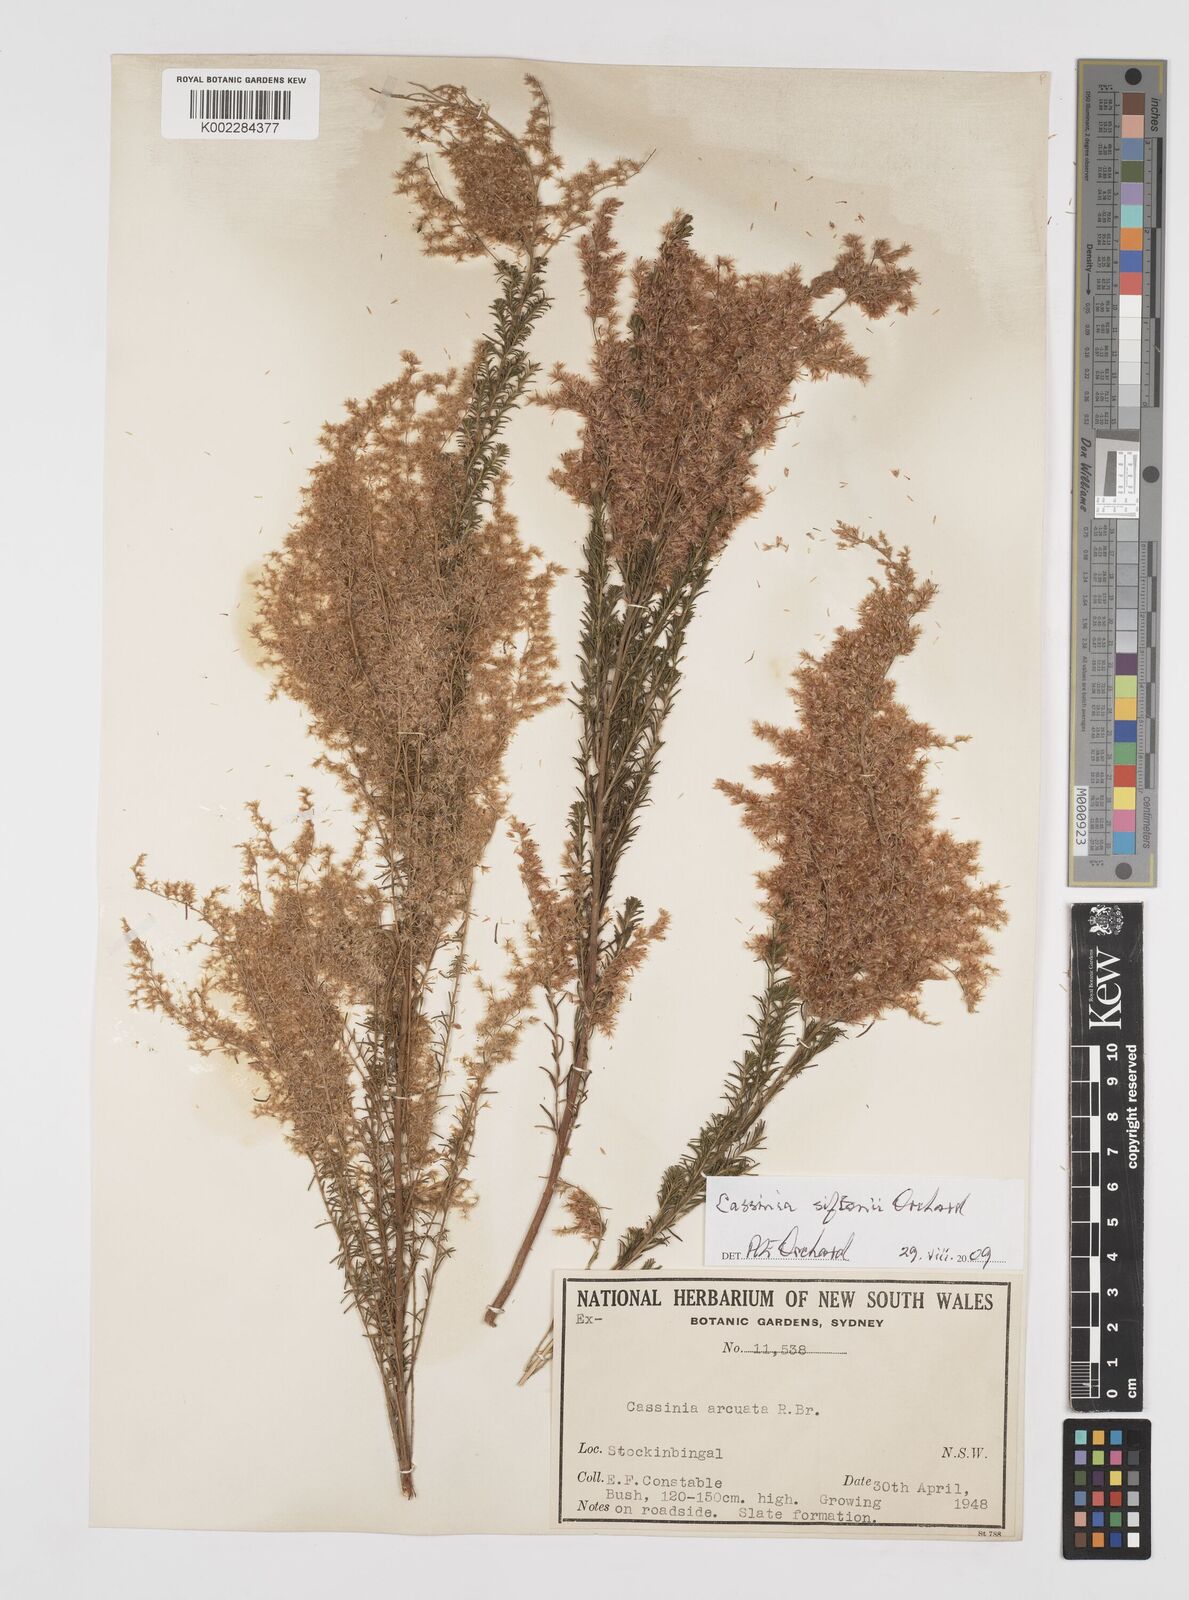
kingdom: Plantae
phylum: Tracheophyta
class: Magnoliopsida
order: Asterales
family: Asteraceae
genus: Cassinia
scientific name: Cassinia arcuata
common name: Chineseshrub
